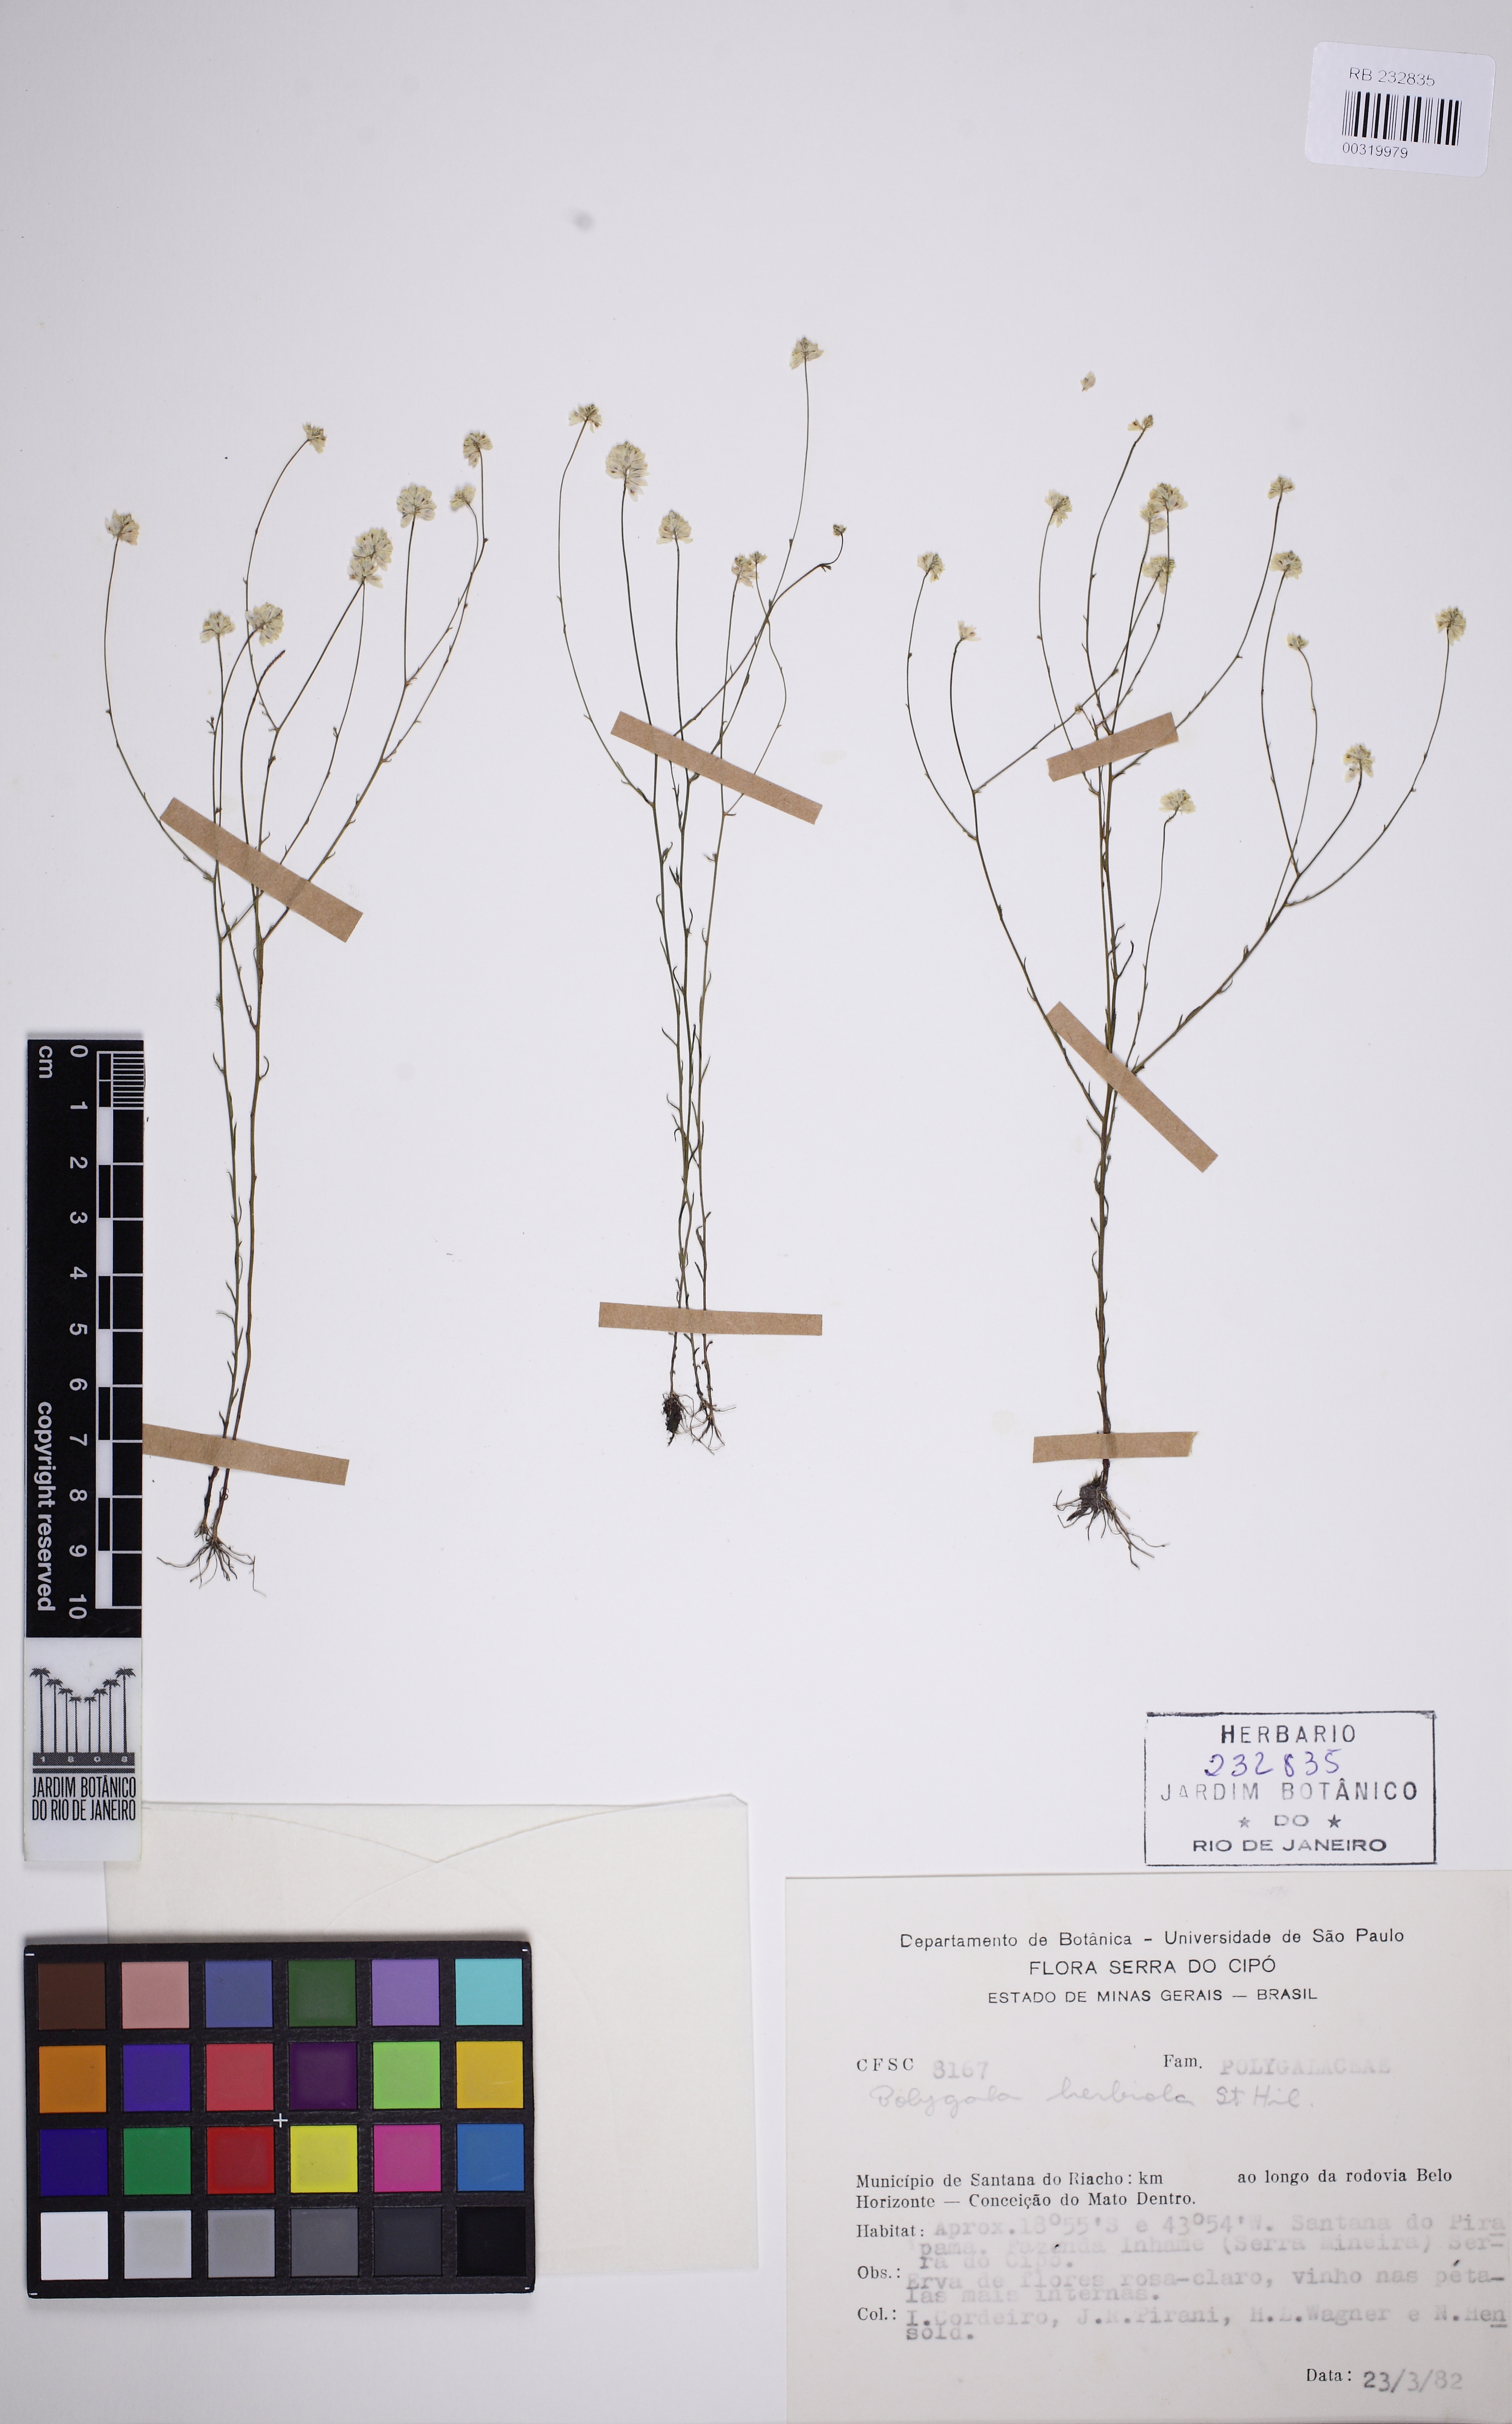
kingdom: Plantae
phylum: Tracheophyta
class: Magnoliopsida
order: Fabales
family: Polygalaceae
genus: Polygala
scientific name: Polygala herbiola
